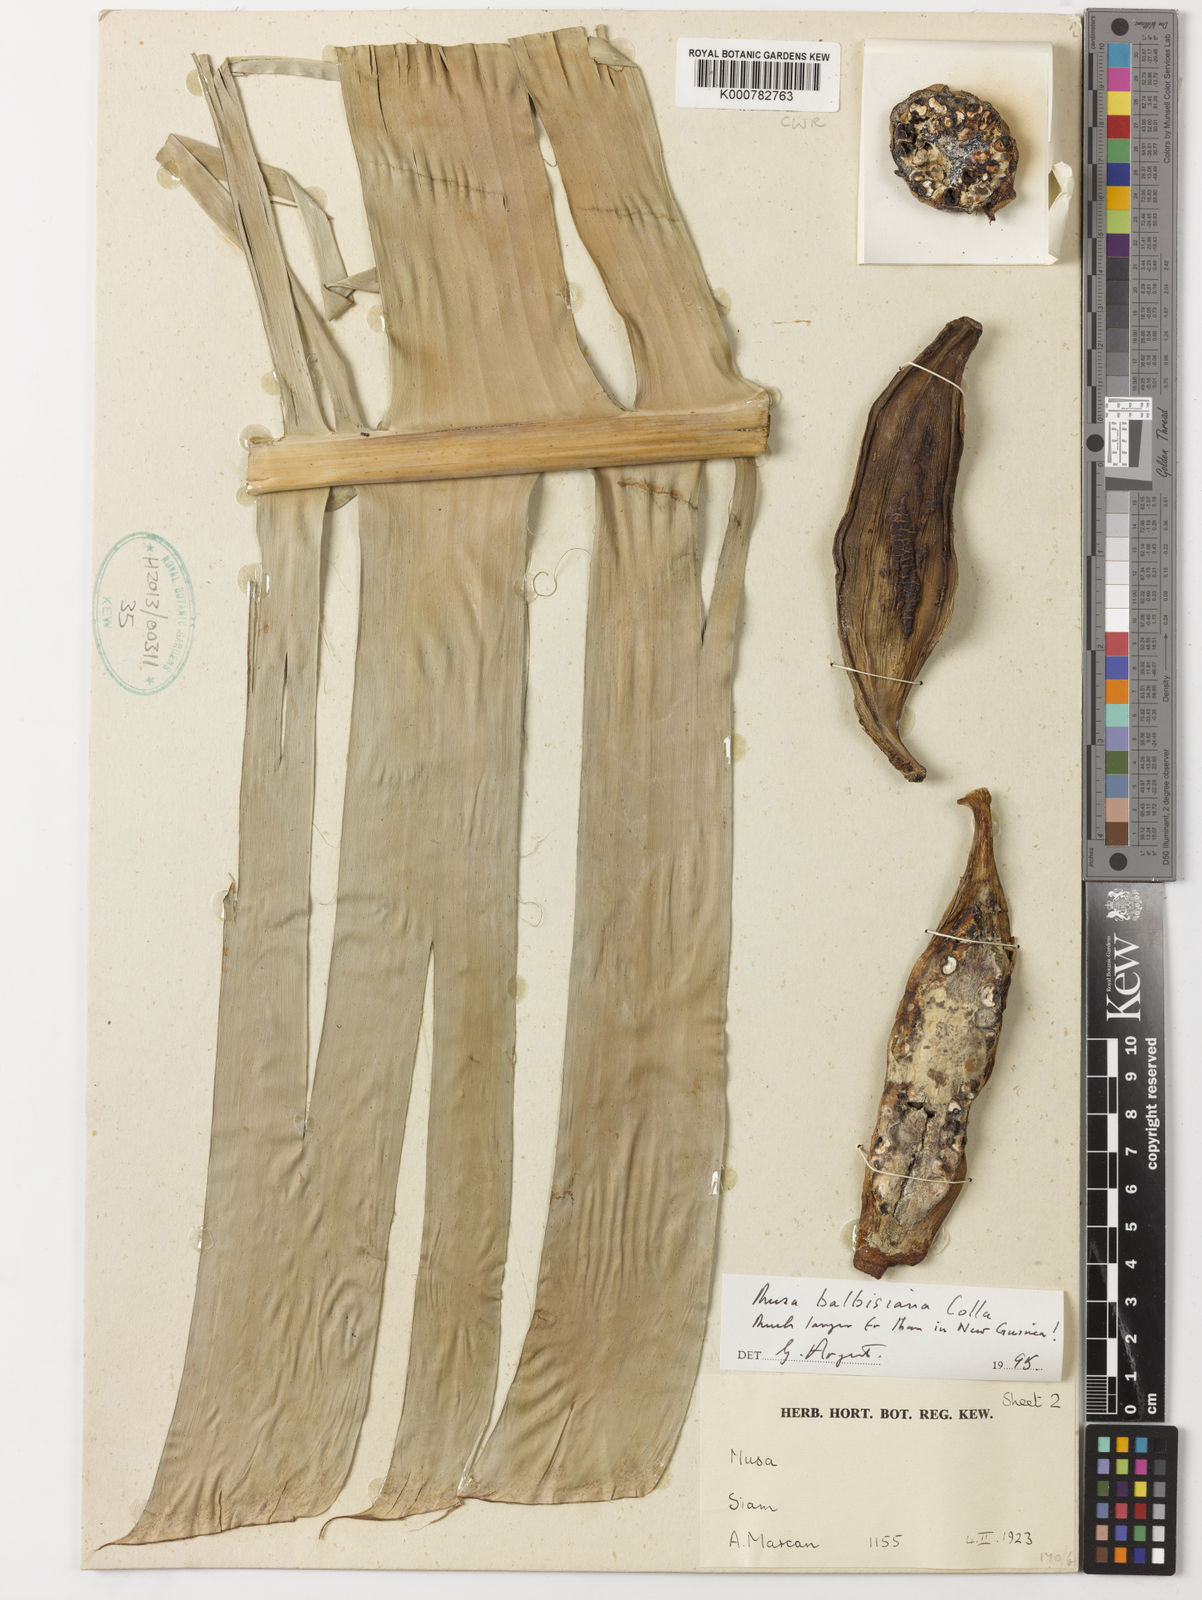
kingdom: Plantae
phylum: Tracheophyta
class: Liliopsida
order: Zingiberales
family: Musaceae
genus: Musa
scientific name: Musa balbisiana
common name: Plantain
